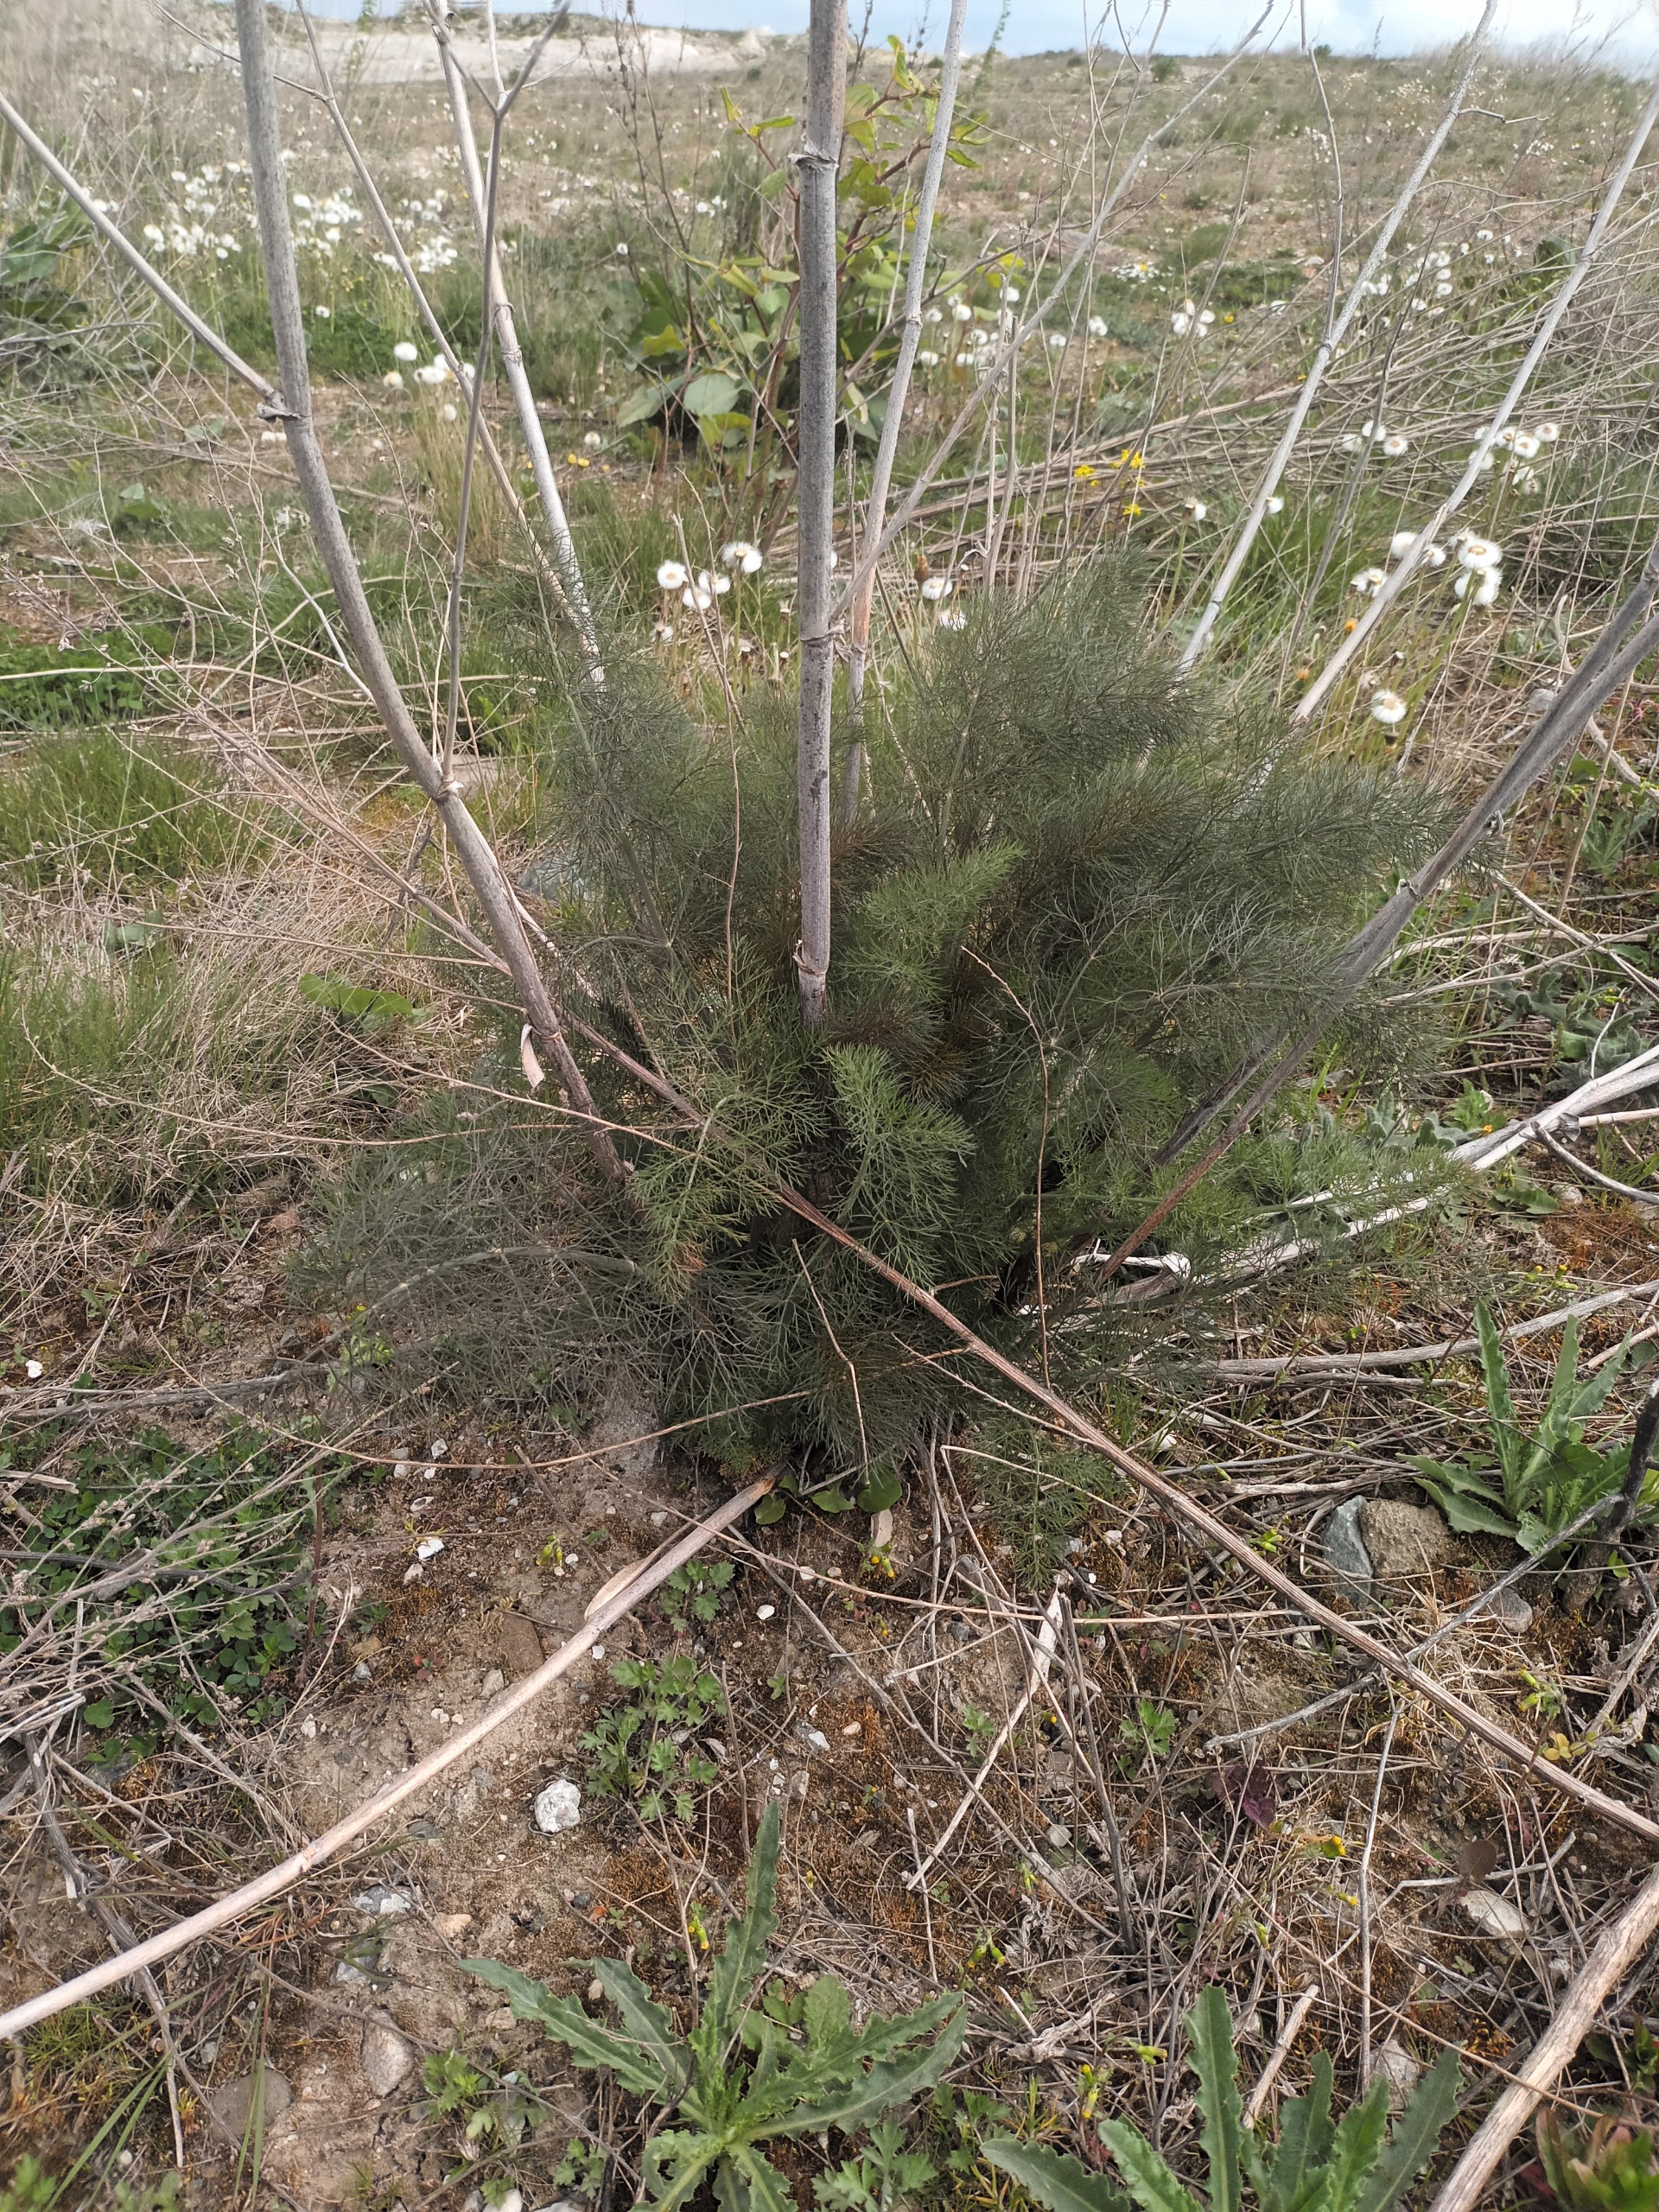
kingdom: Plantae
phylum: Tracheophyta
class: Magnoliopsida
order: Apiales
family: Apiaceae
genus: Foeniculum
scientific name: Foeniculum vulgare
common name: Fennikel
